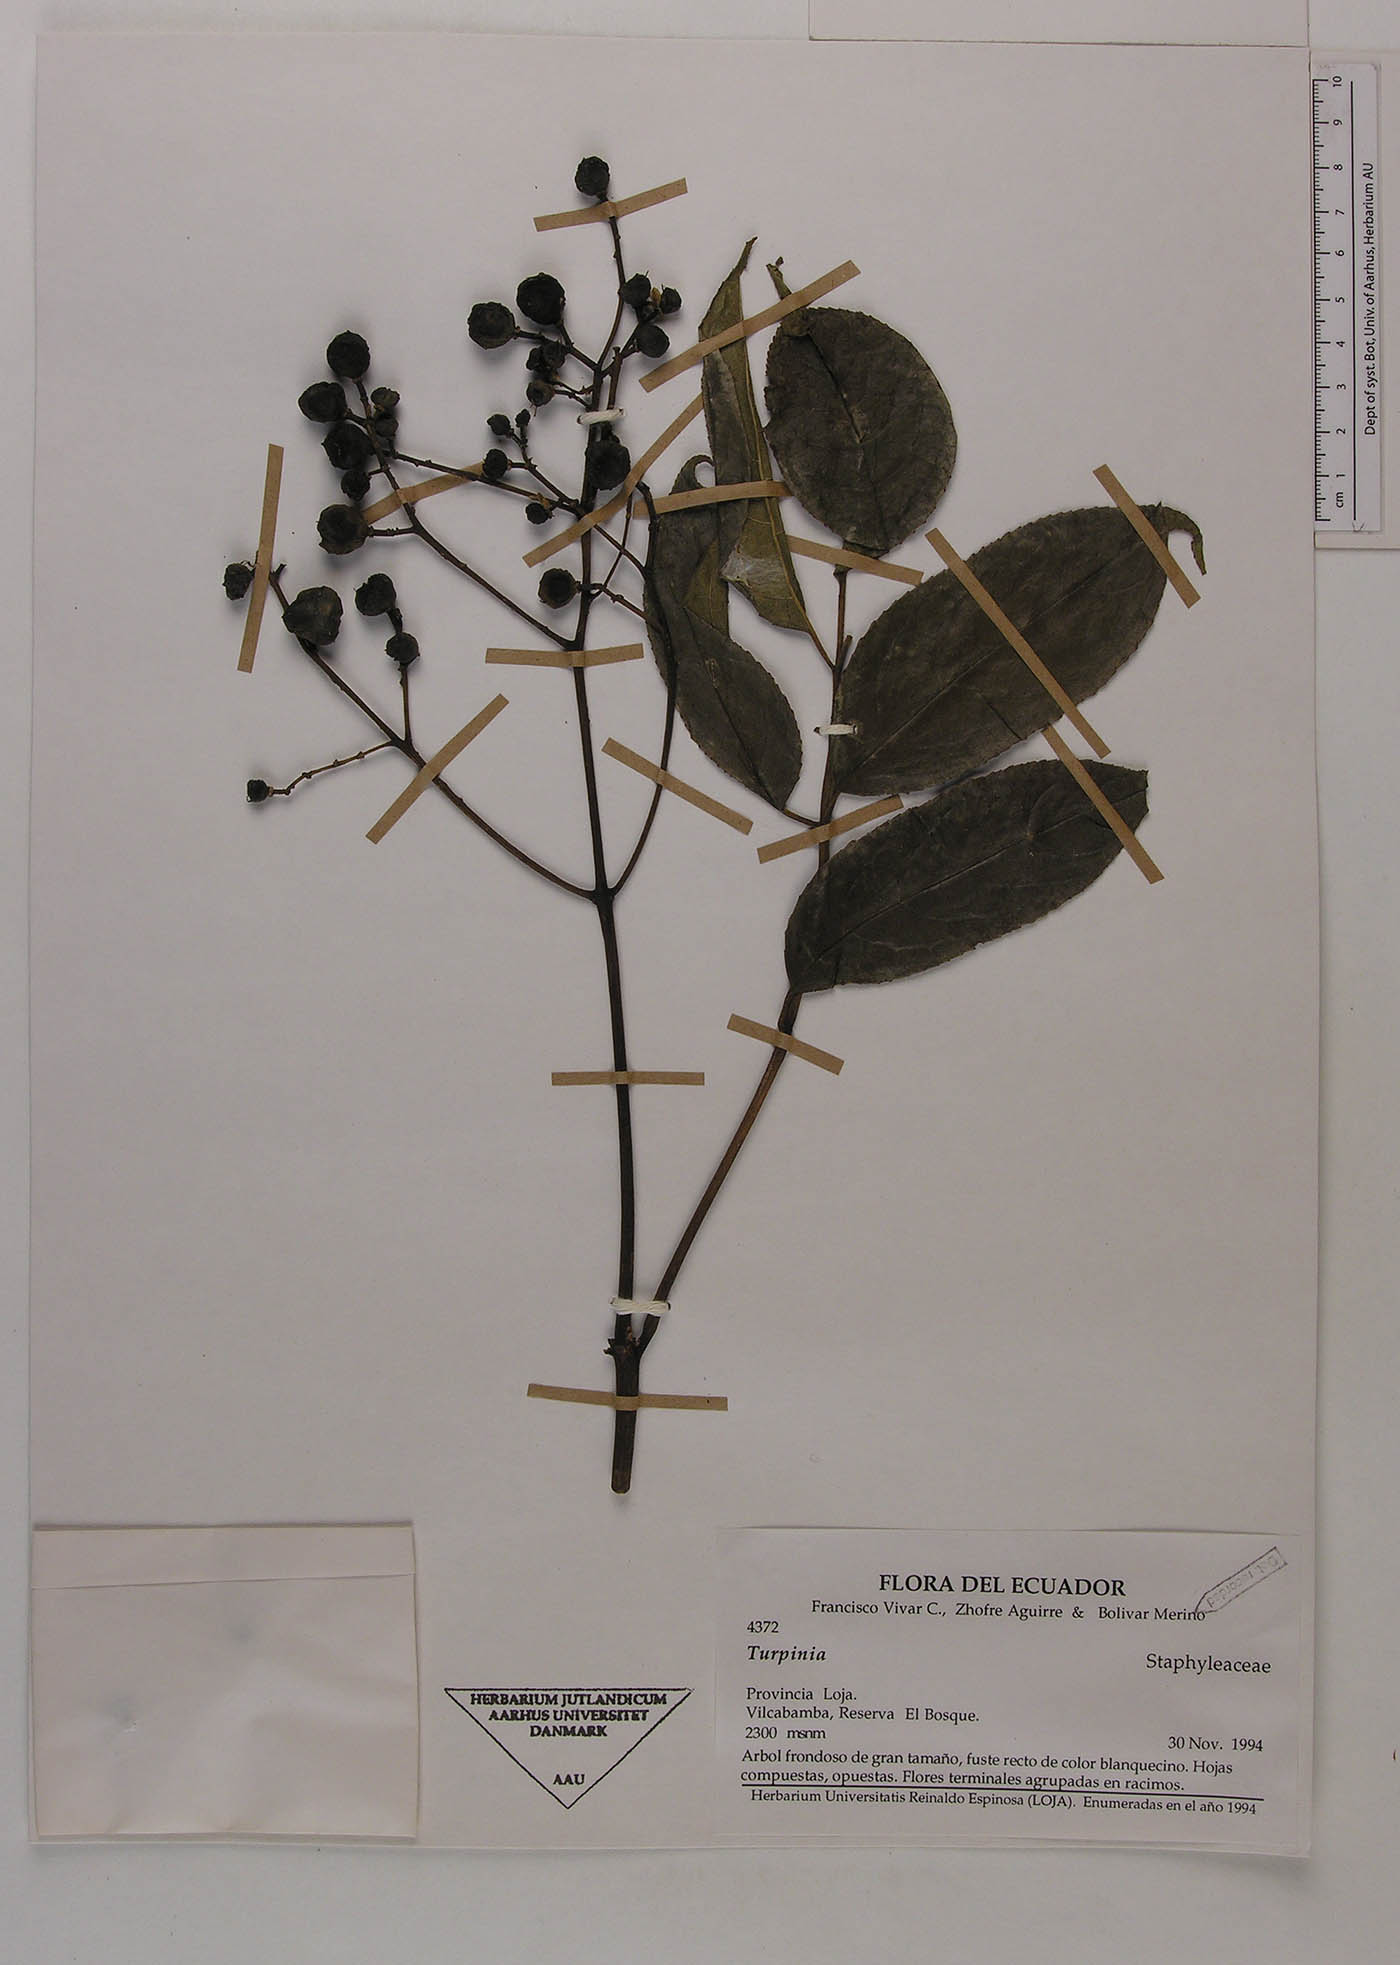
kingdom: Plantae
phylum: Tracheophyta
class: Magnoliopsida
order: Crossosomatales
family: Staphyleaceae
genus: Turpinia
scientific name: Turpinia occidentalis
